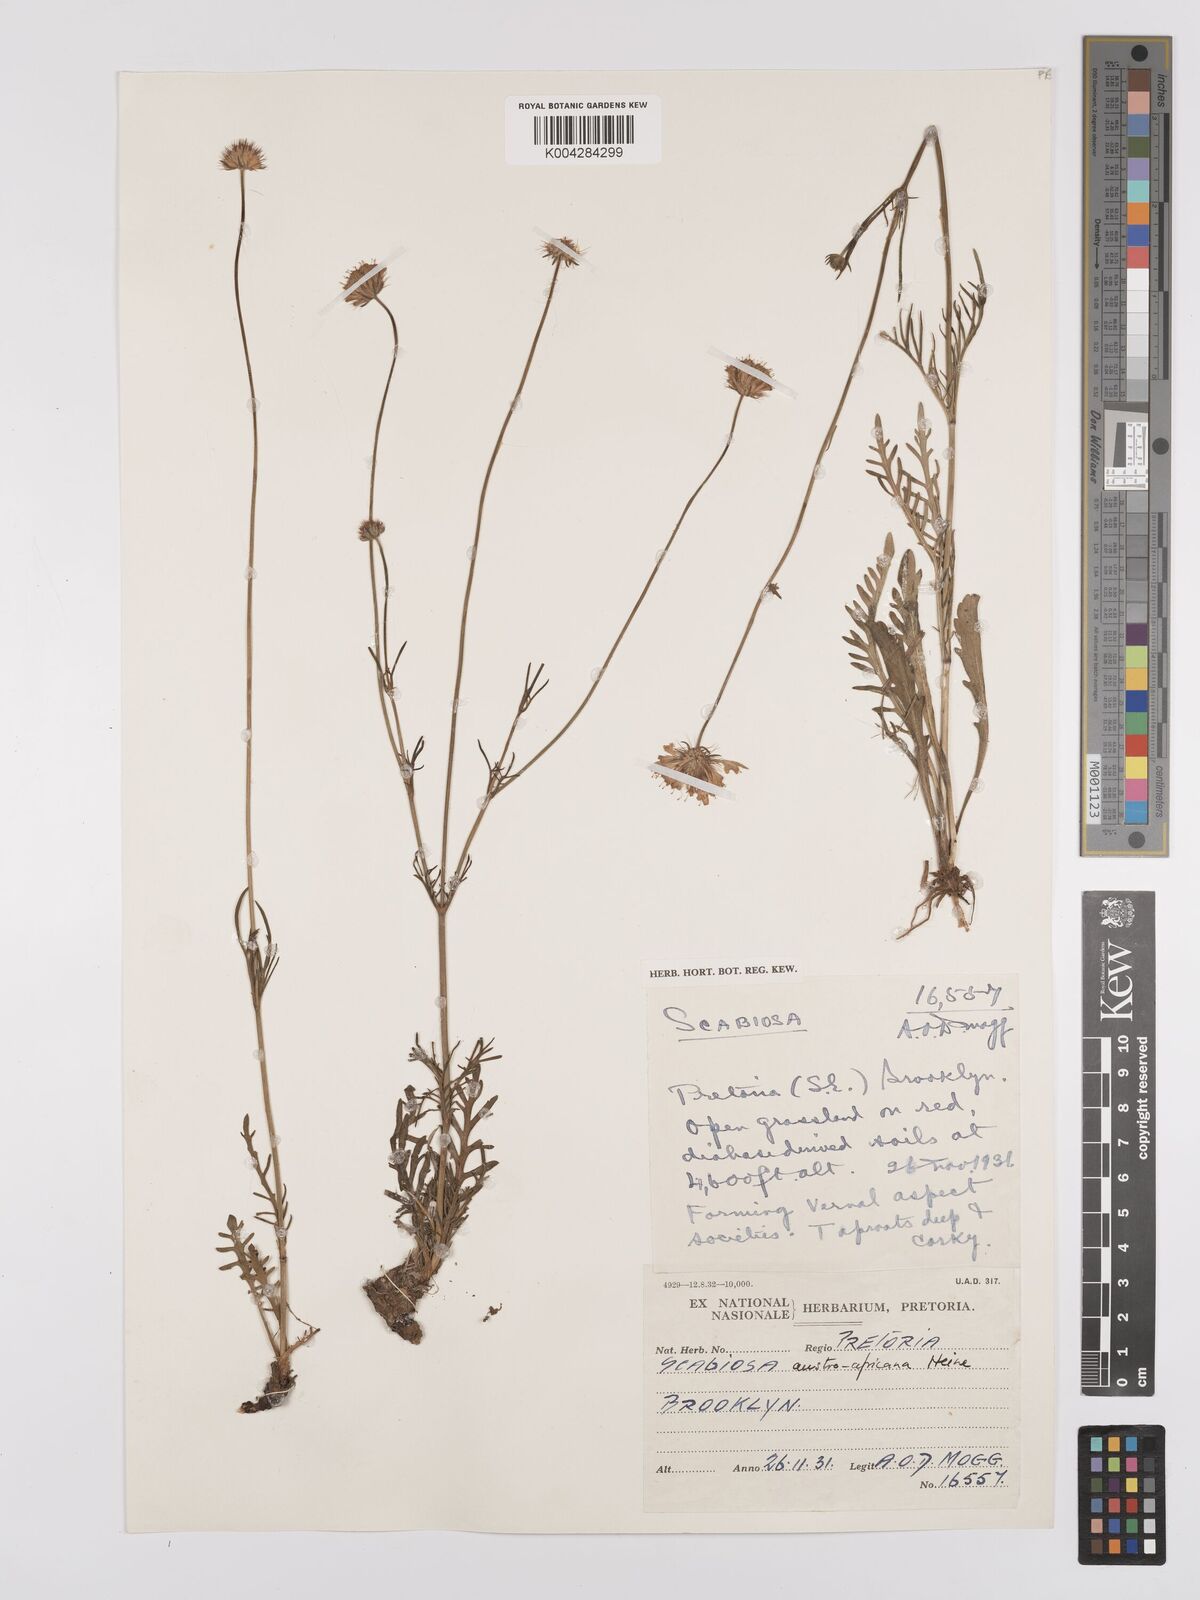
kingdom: Plantae
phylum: Tracheophyta
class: Magnoliopsida
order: Dipsacales
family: Caprifoliaceae
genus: Scabiosa
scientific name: Scabiosa austroafricana
